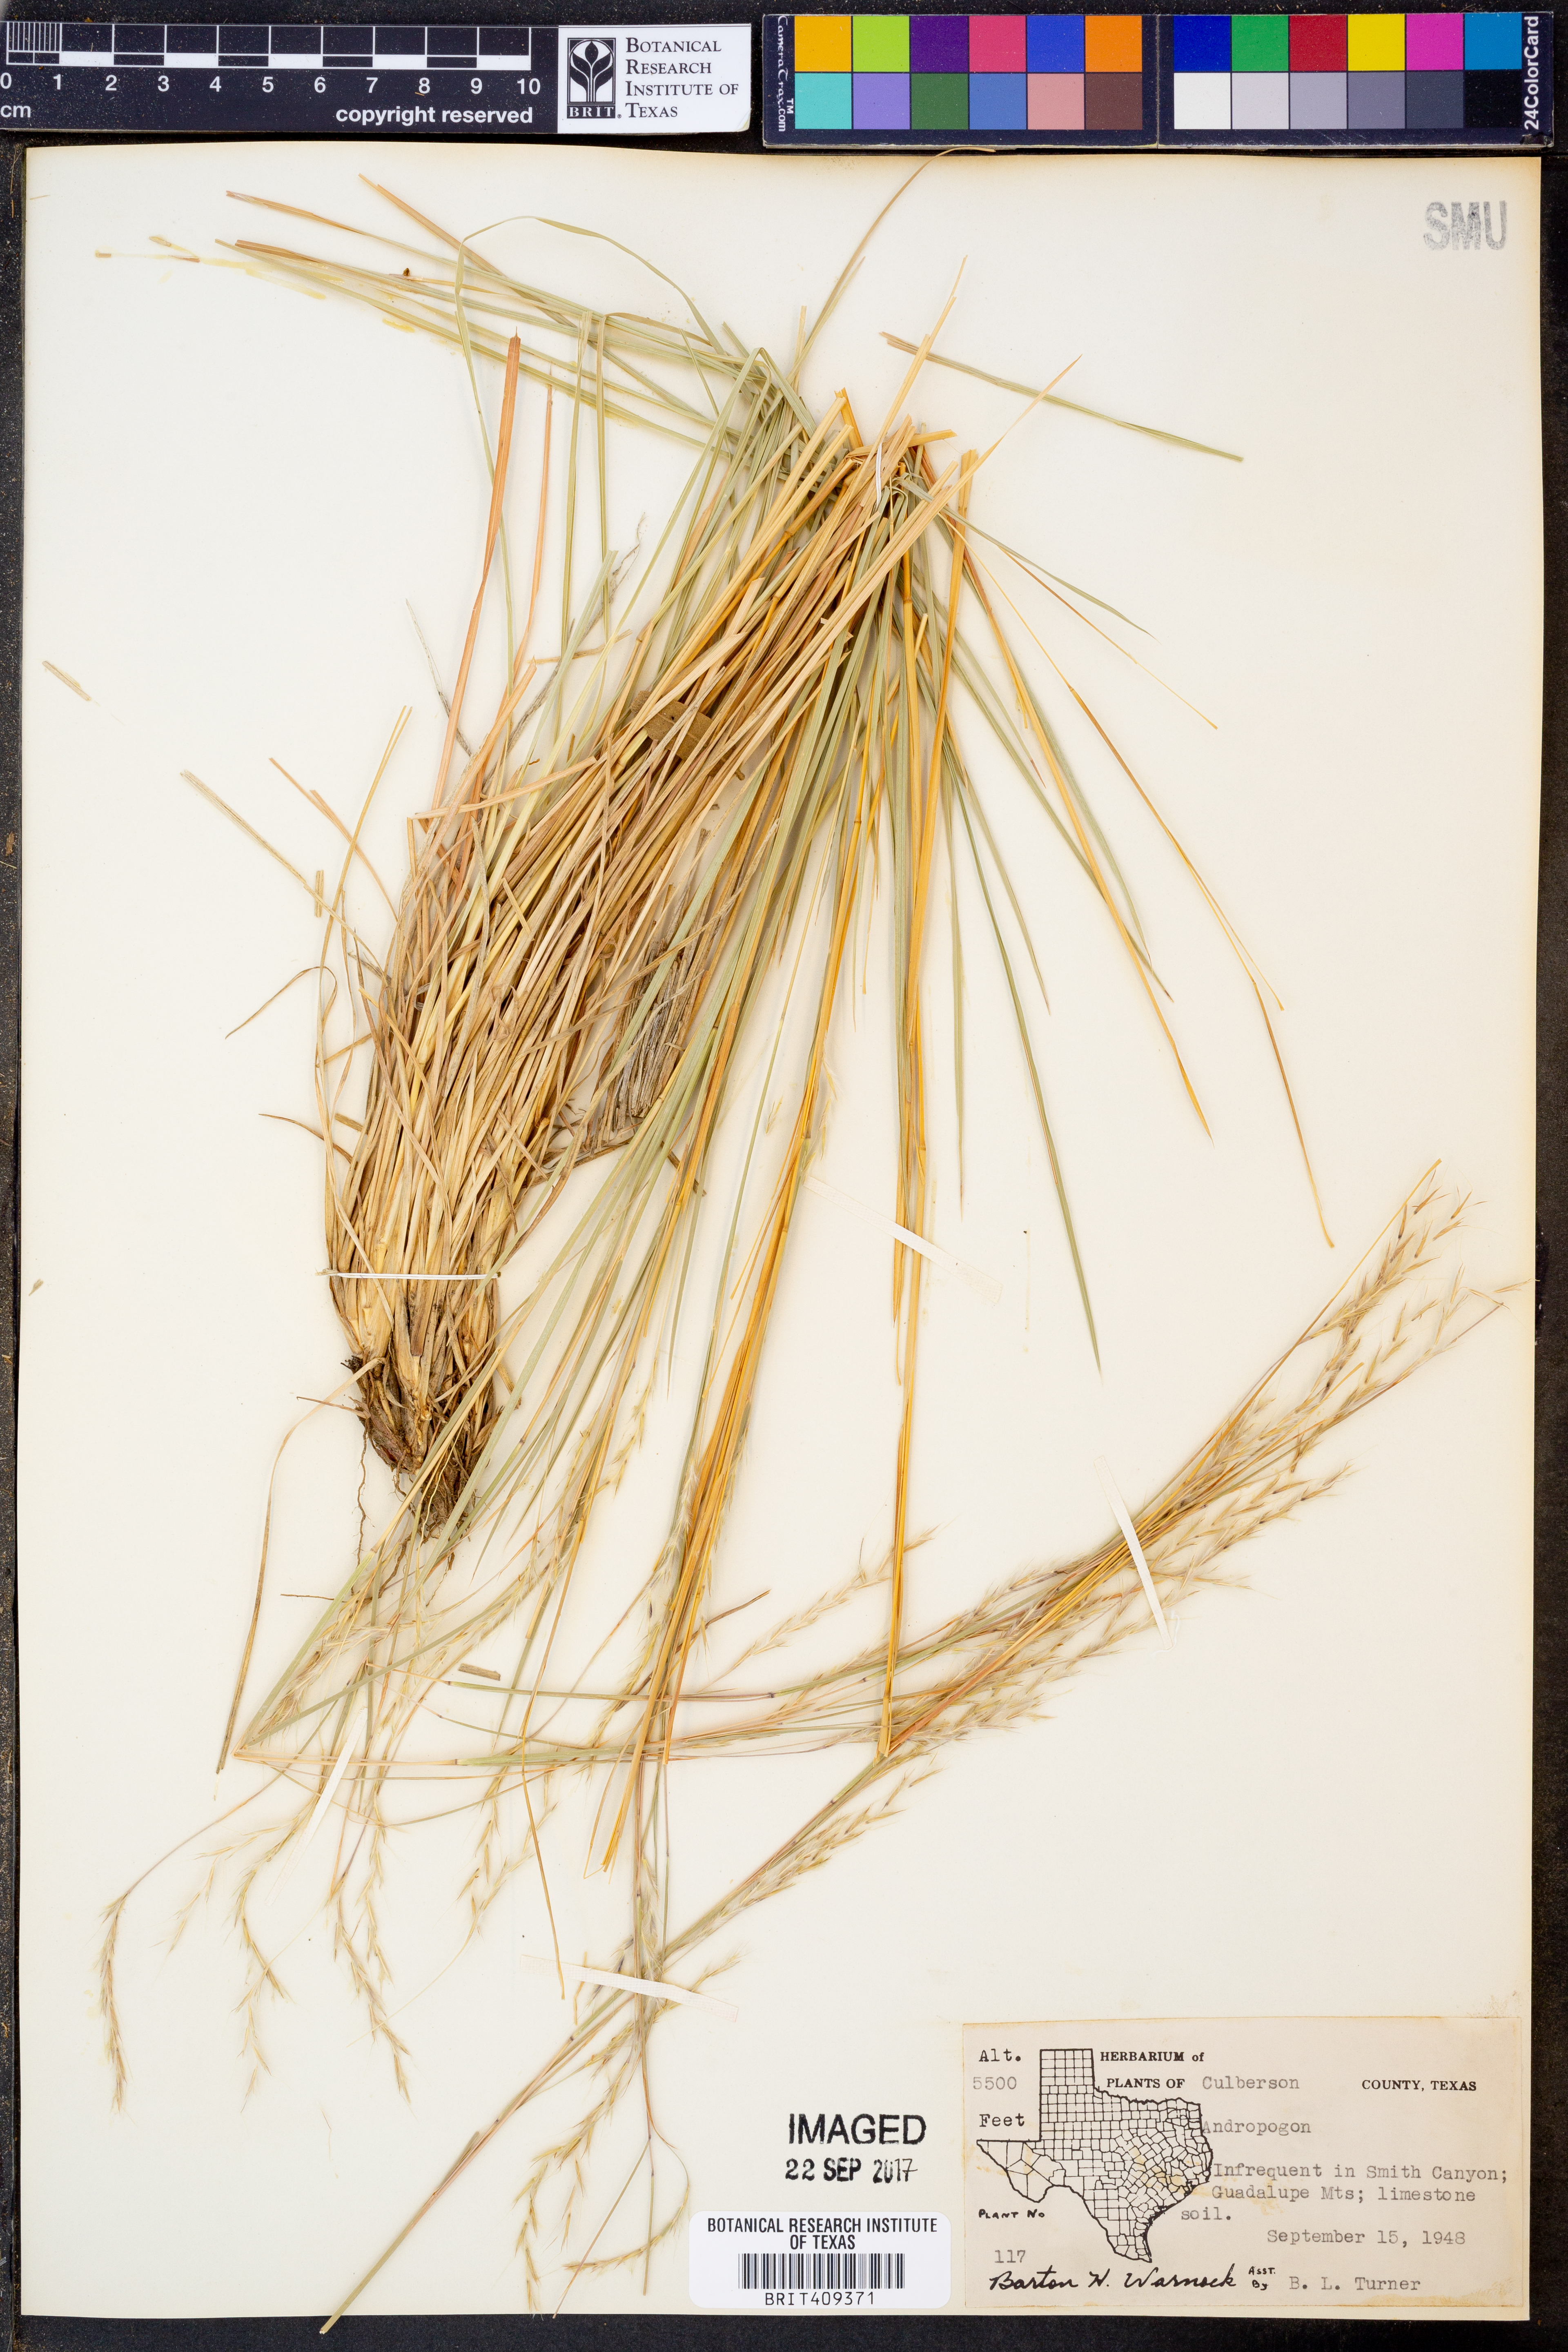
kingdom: Plantae
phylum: Tracheophyta
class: Liliopsida
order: Poales
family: Poaceae
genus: Andropogon
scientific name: Andropogon
